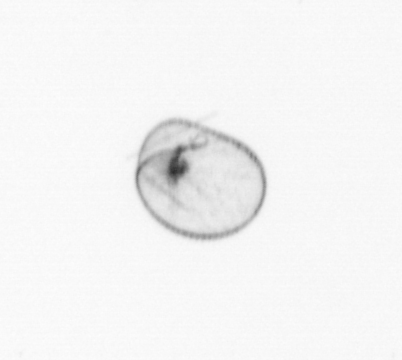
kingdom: Chromista
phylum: Myzozoa
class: Dinophyceae
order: Noctilucales
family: Noctilucaceae
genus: Noctiluca
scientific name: Noctiluca scintillans
